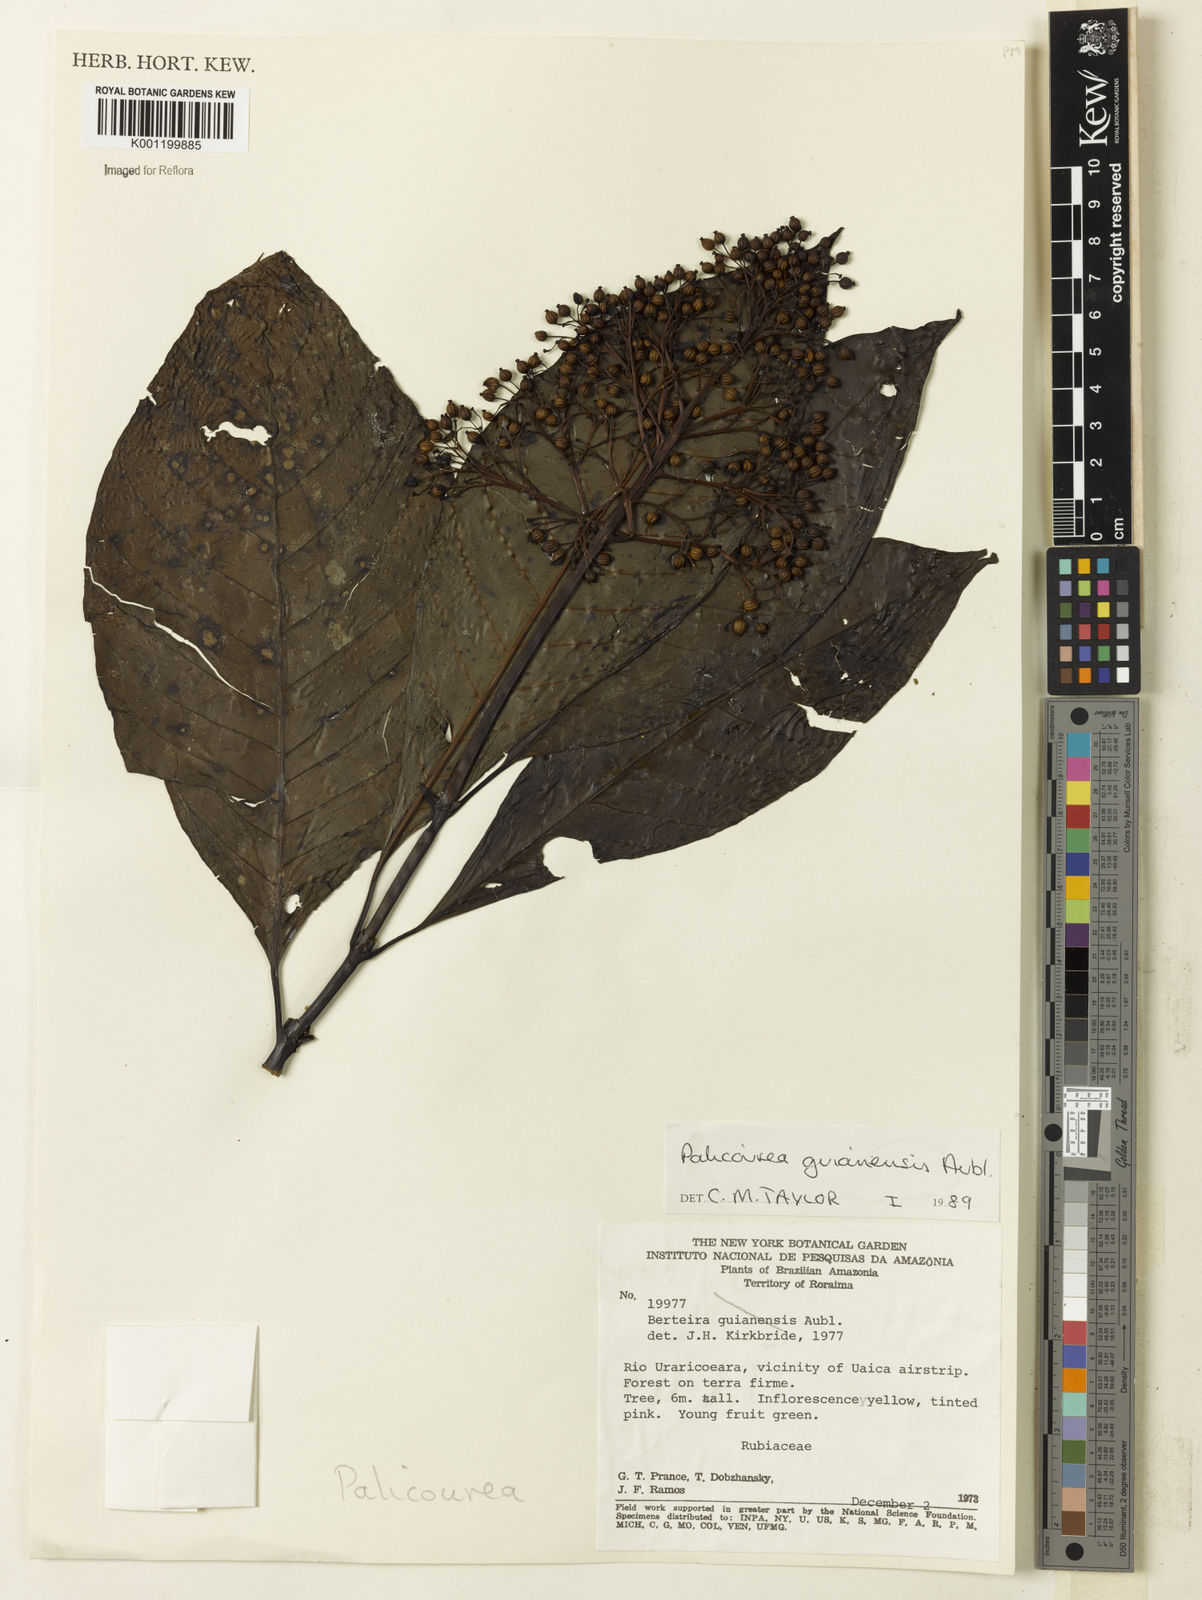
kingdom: Plantae
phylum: Tracheophyta
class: Magnoliopsida
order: Gentianales
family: Rubiaceae
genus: Palicourea
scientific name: Palicourea guianensis
